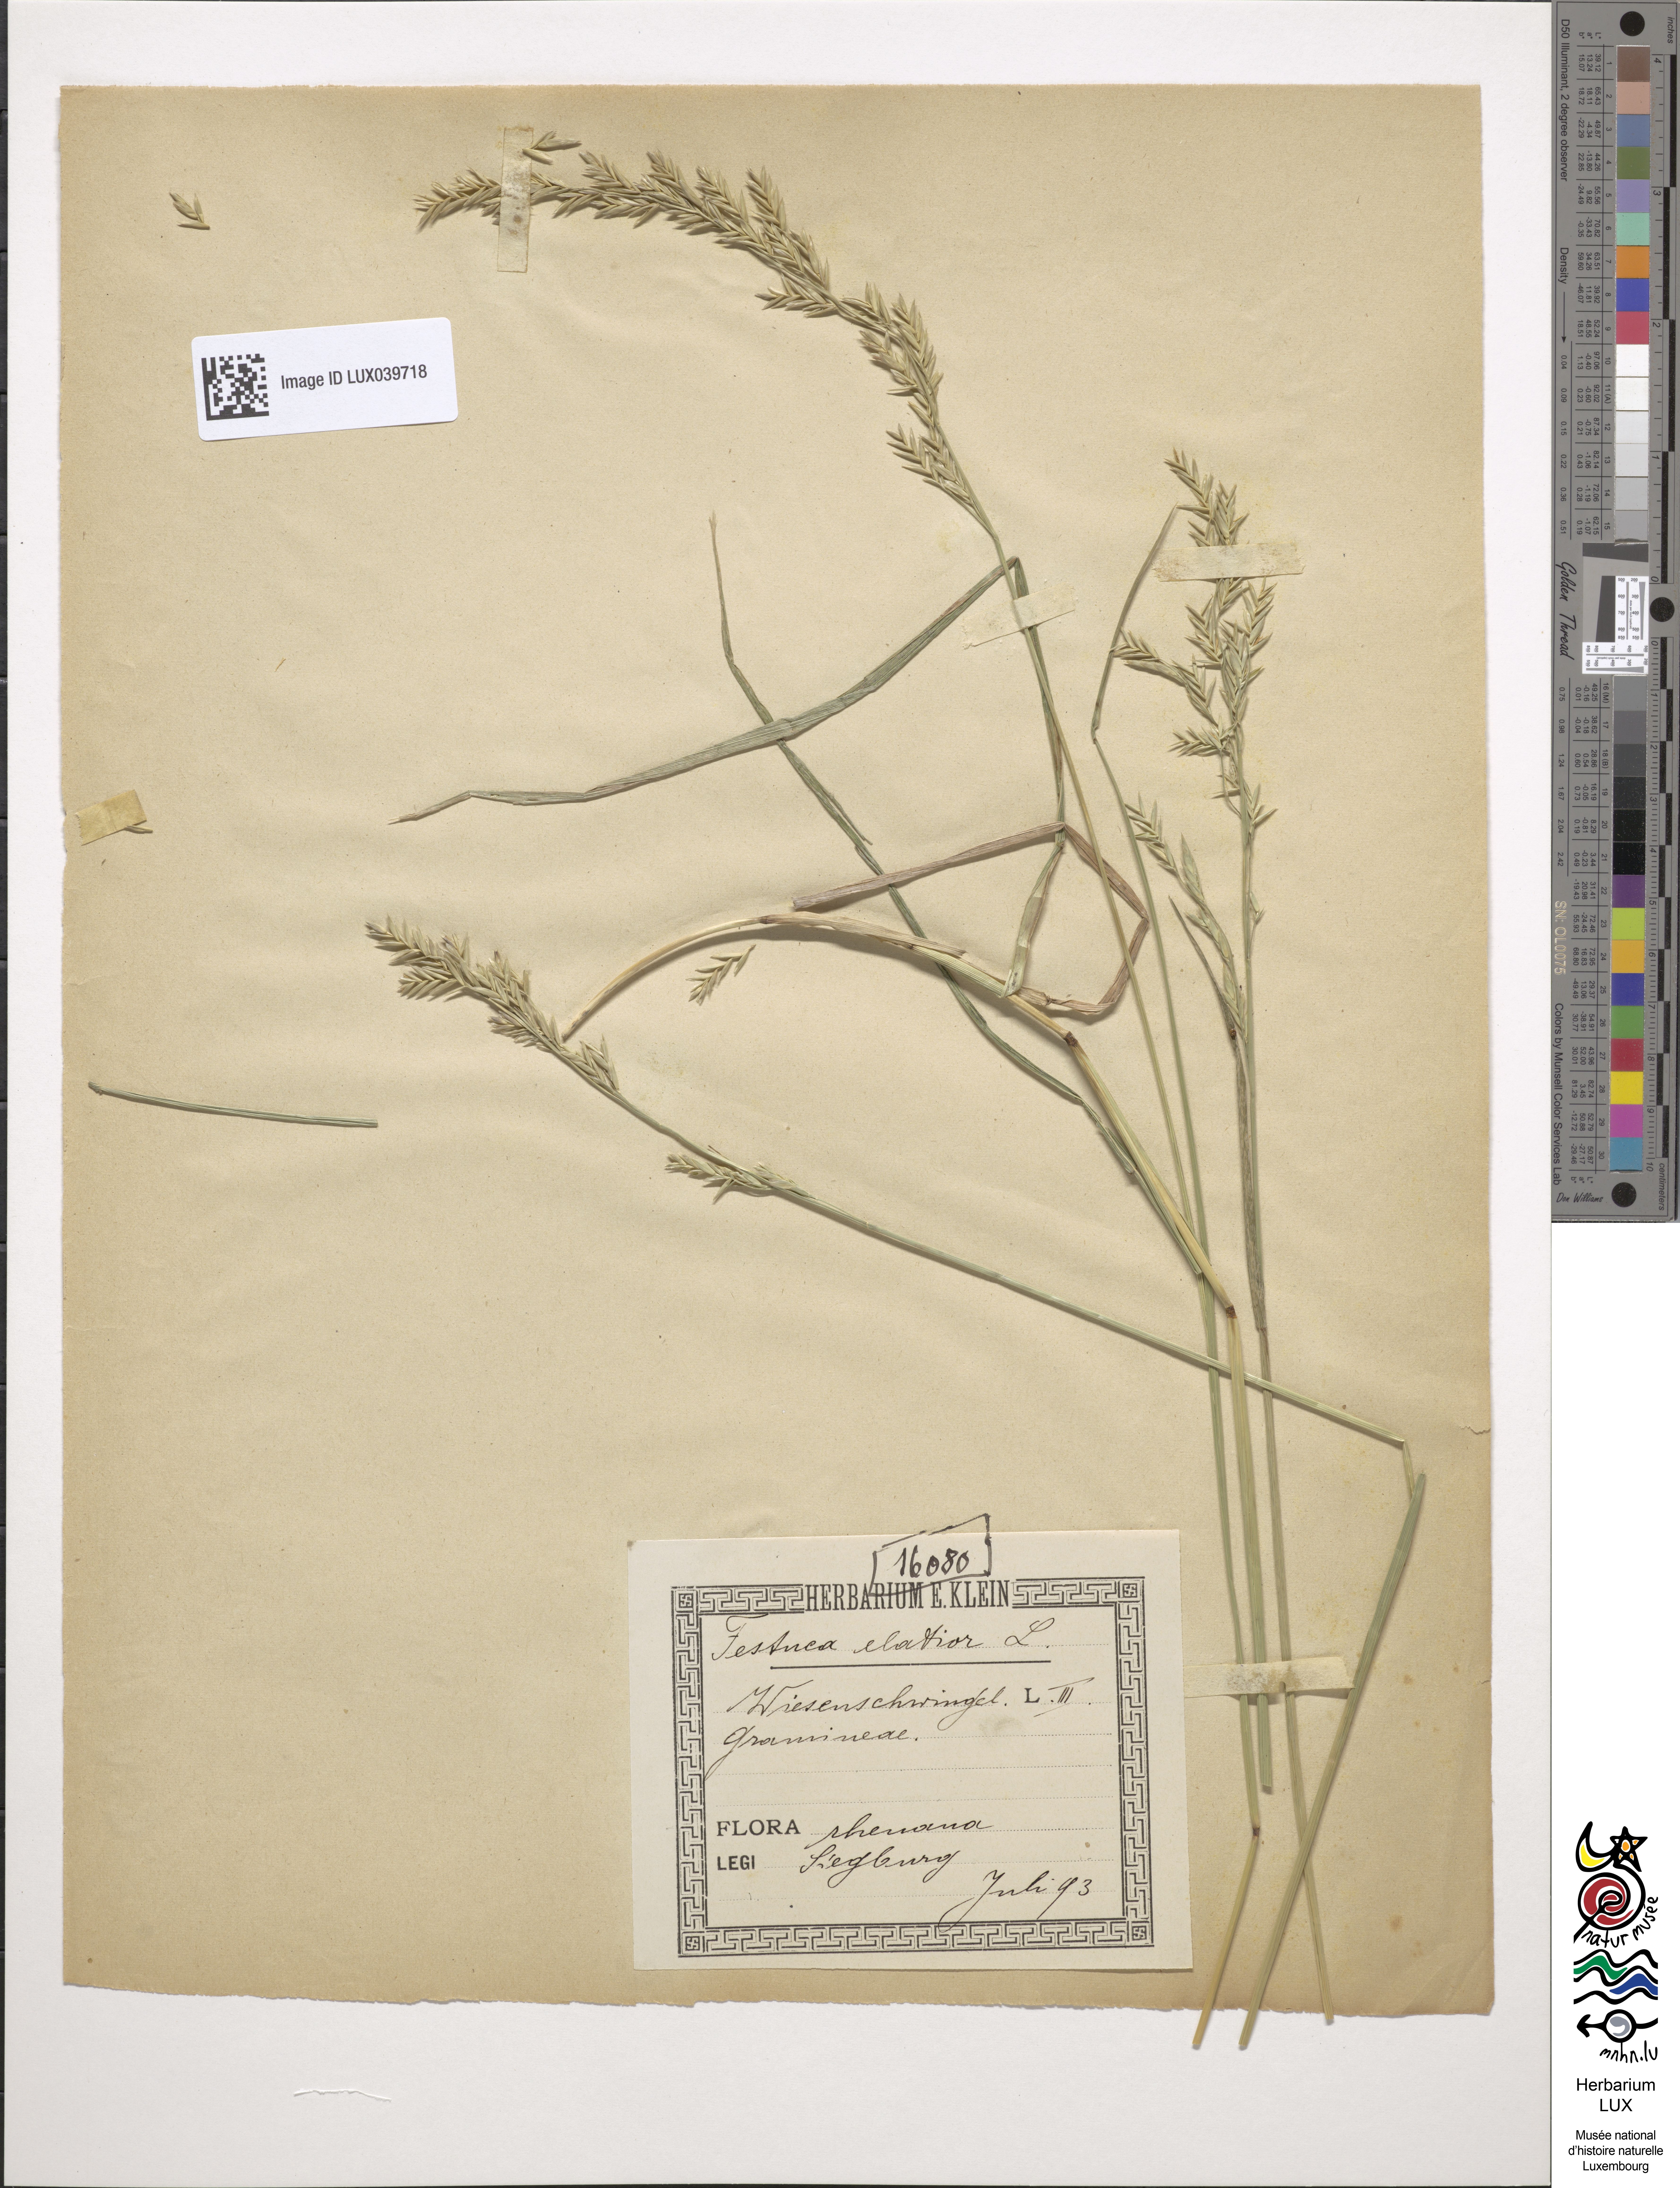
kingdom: Plantae
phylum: Tracheophyta
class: Liliopsida
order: Poales
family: Poaceae
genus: Lolium
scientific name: Lolium pratense
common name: Dover grass
